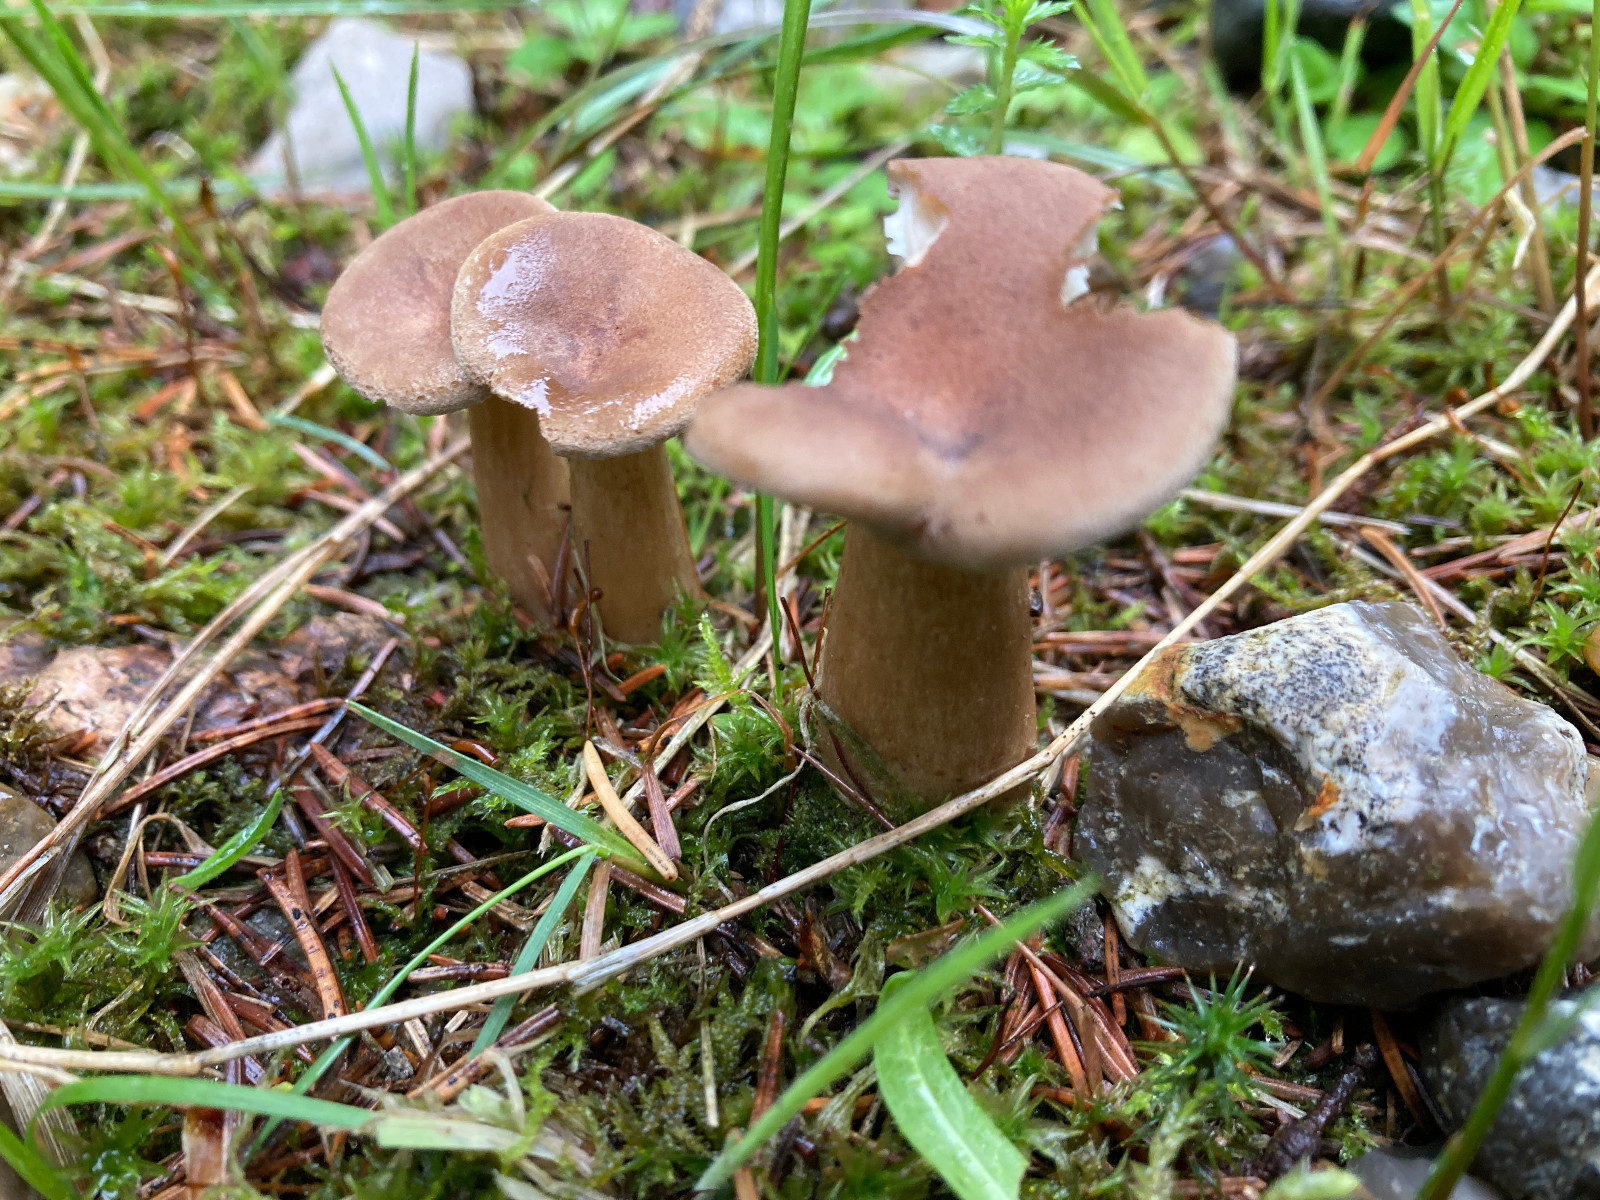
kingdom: Fungi
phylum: Basidiomycota
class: Agaricomycetes
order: Agaricales
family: Hygrophoraceae
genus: Ampulloclitocybe
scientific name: Ampulloclitocybe clavipes
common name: køllefod
